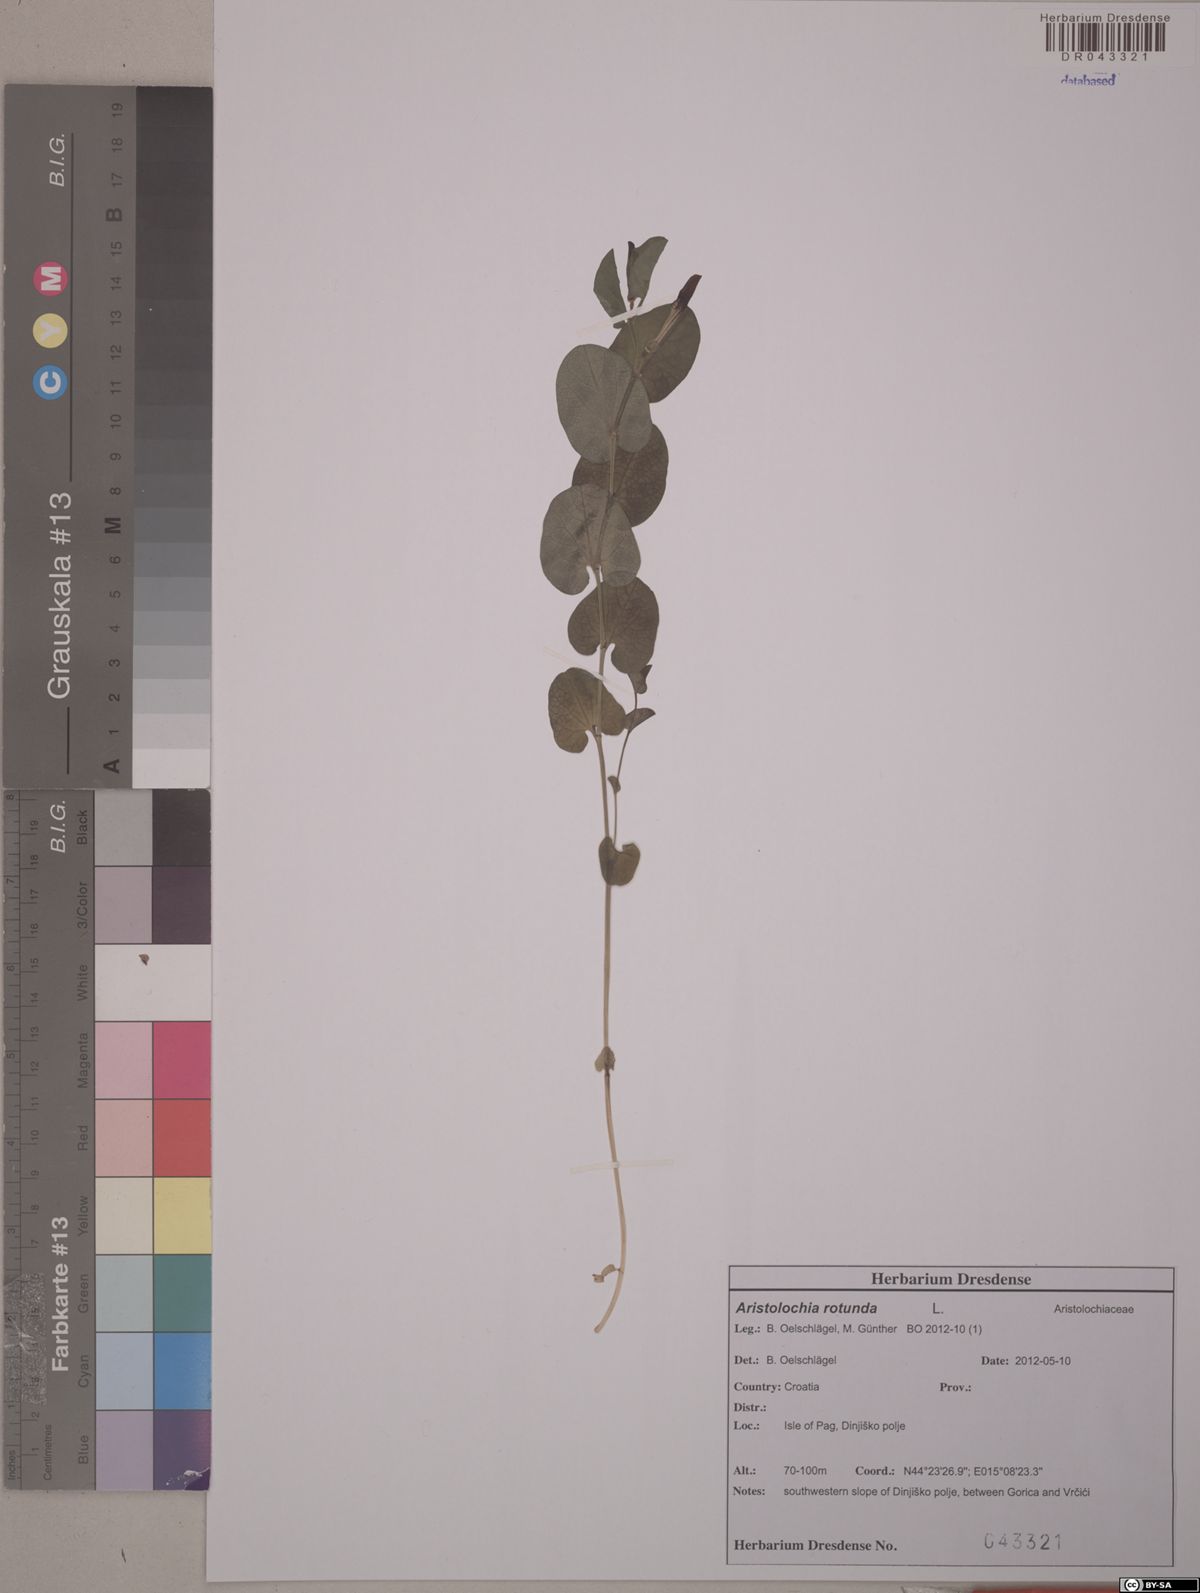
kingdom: Plantae
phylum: Tracheophyta
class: Magnoliopsida
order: Piperales
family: Aristolochiaceae
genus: Aristolochia
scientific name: Aristolochia rotunda
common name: Smearwort
